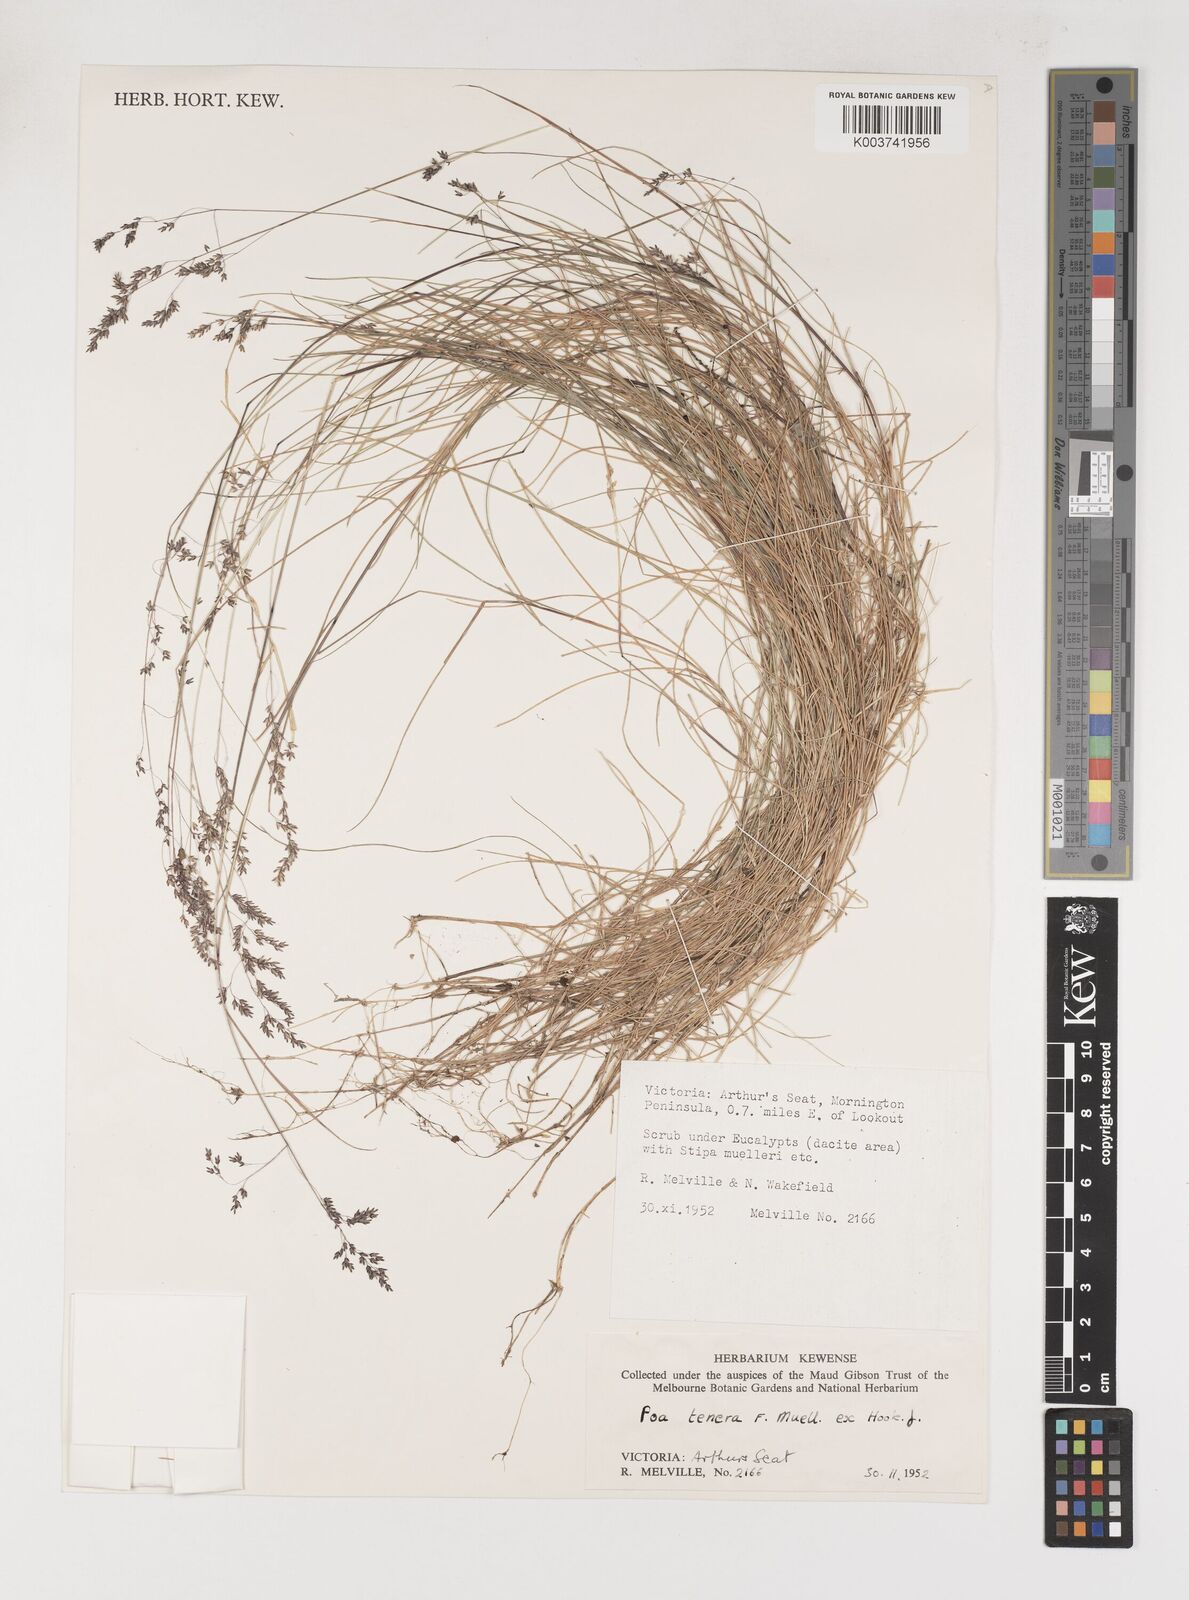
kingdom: Plantae
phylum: Tracheophyta
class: Liliopsida
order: Poales
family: Poaceae
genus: Poa
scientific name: Poa tenera
